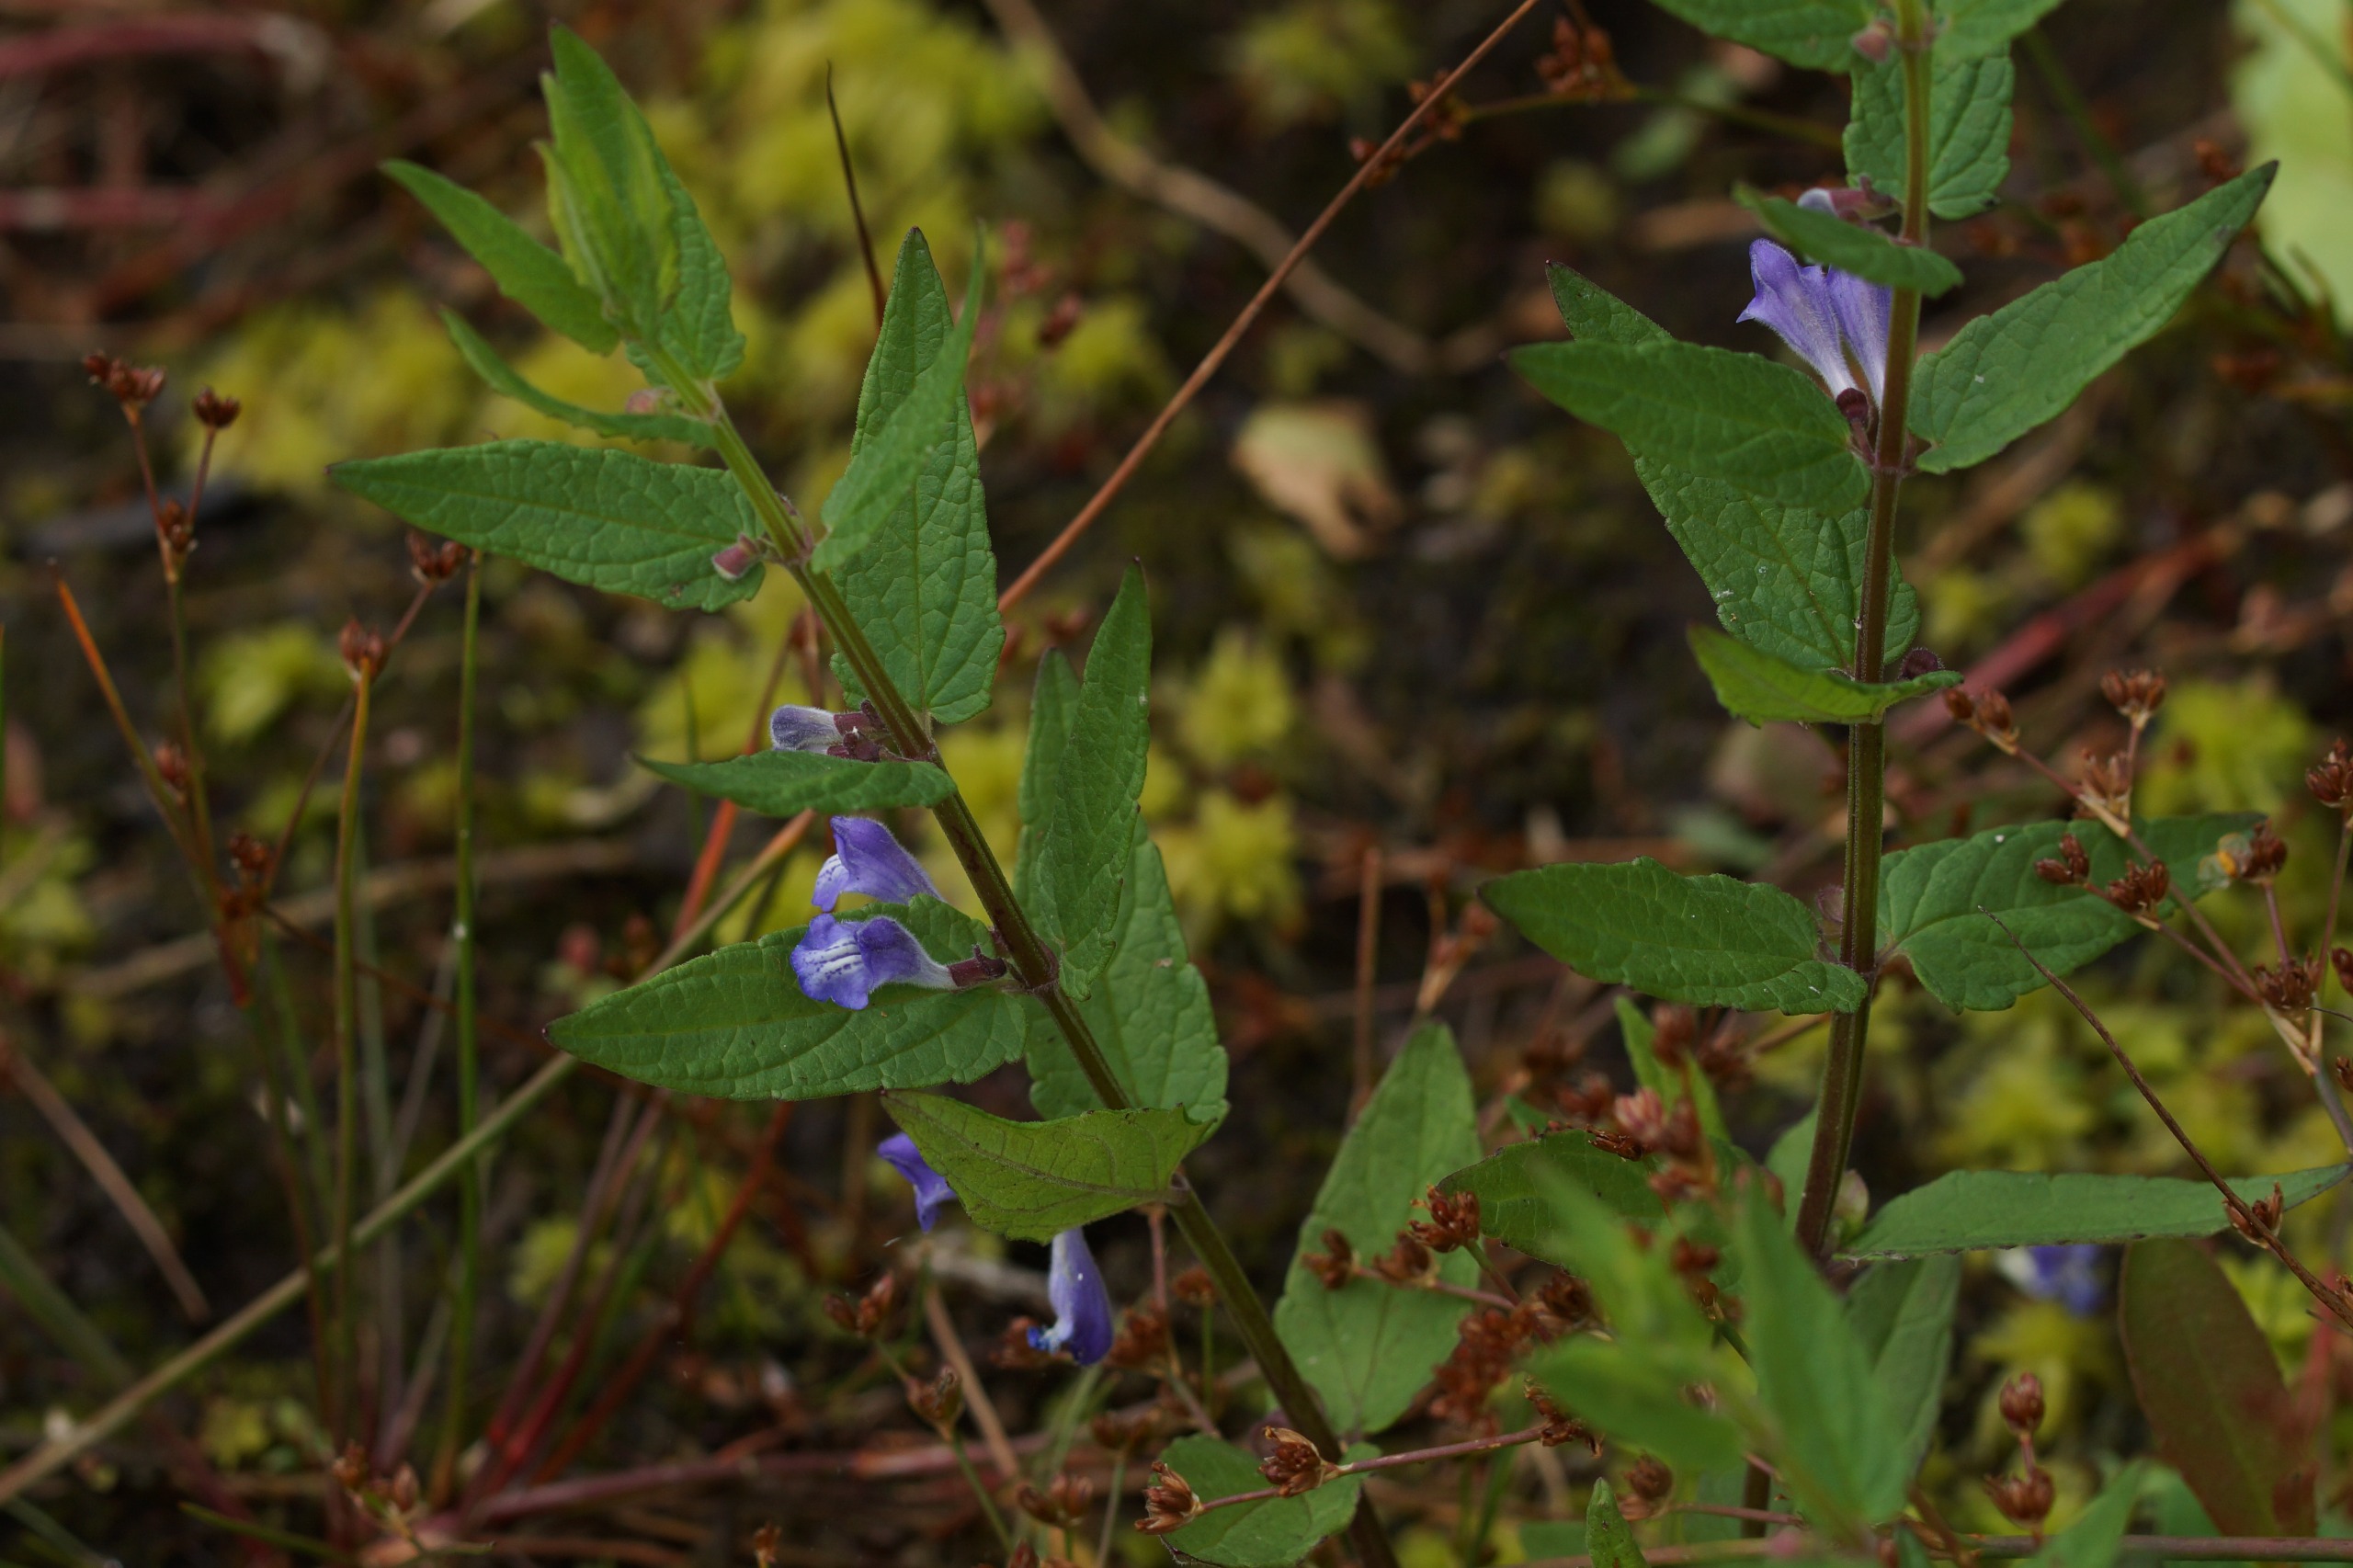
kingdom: Plantae
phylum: Tracheophyta
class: Magnoliopsida
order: Lamiales
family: Lamiaceae
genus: Scutellaria
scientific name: Scutellaria galericulata
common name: Almindelig skjolddrager
